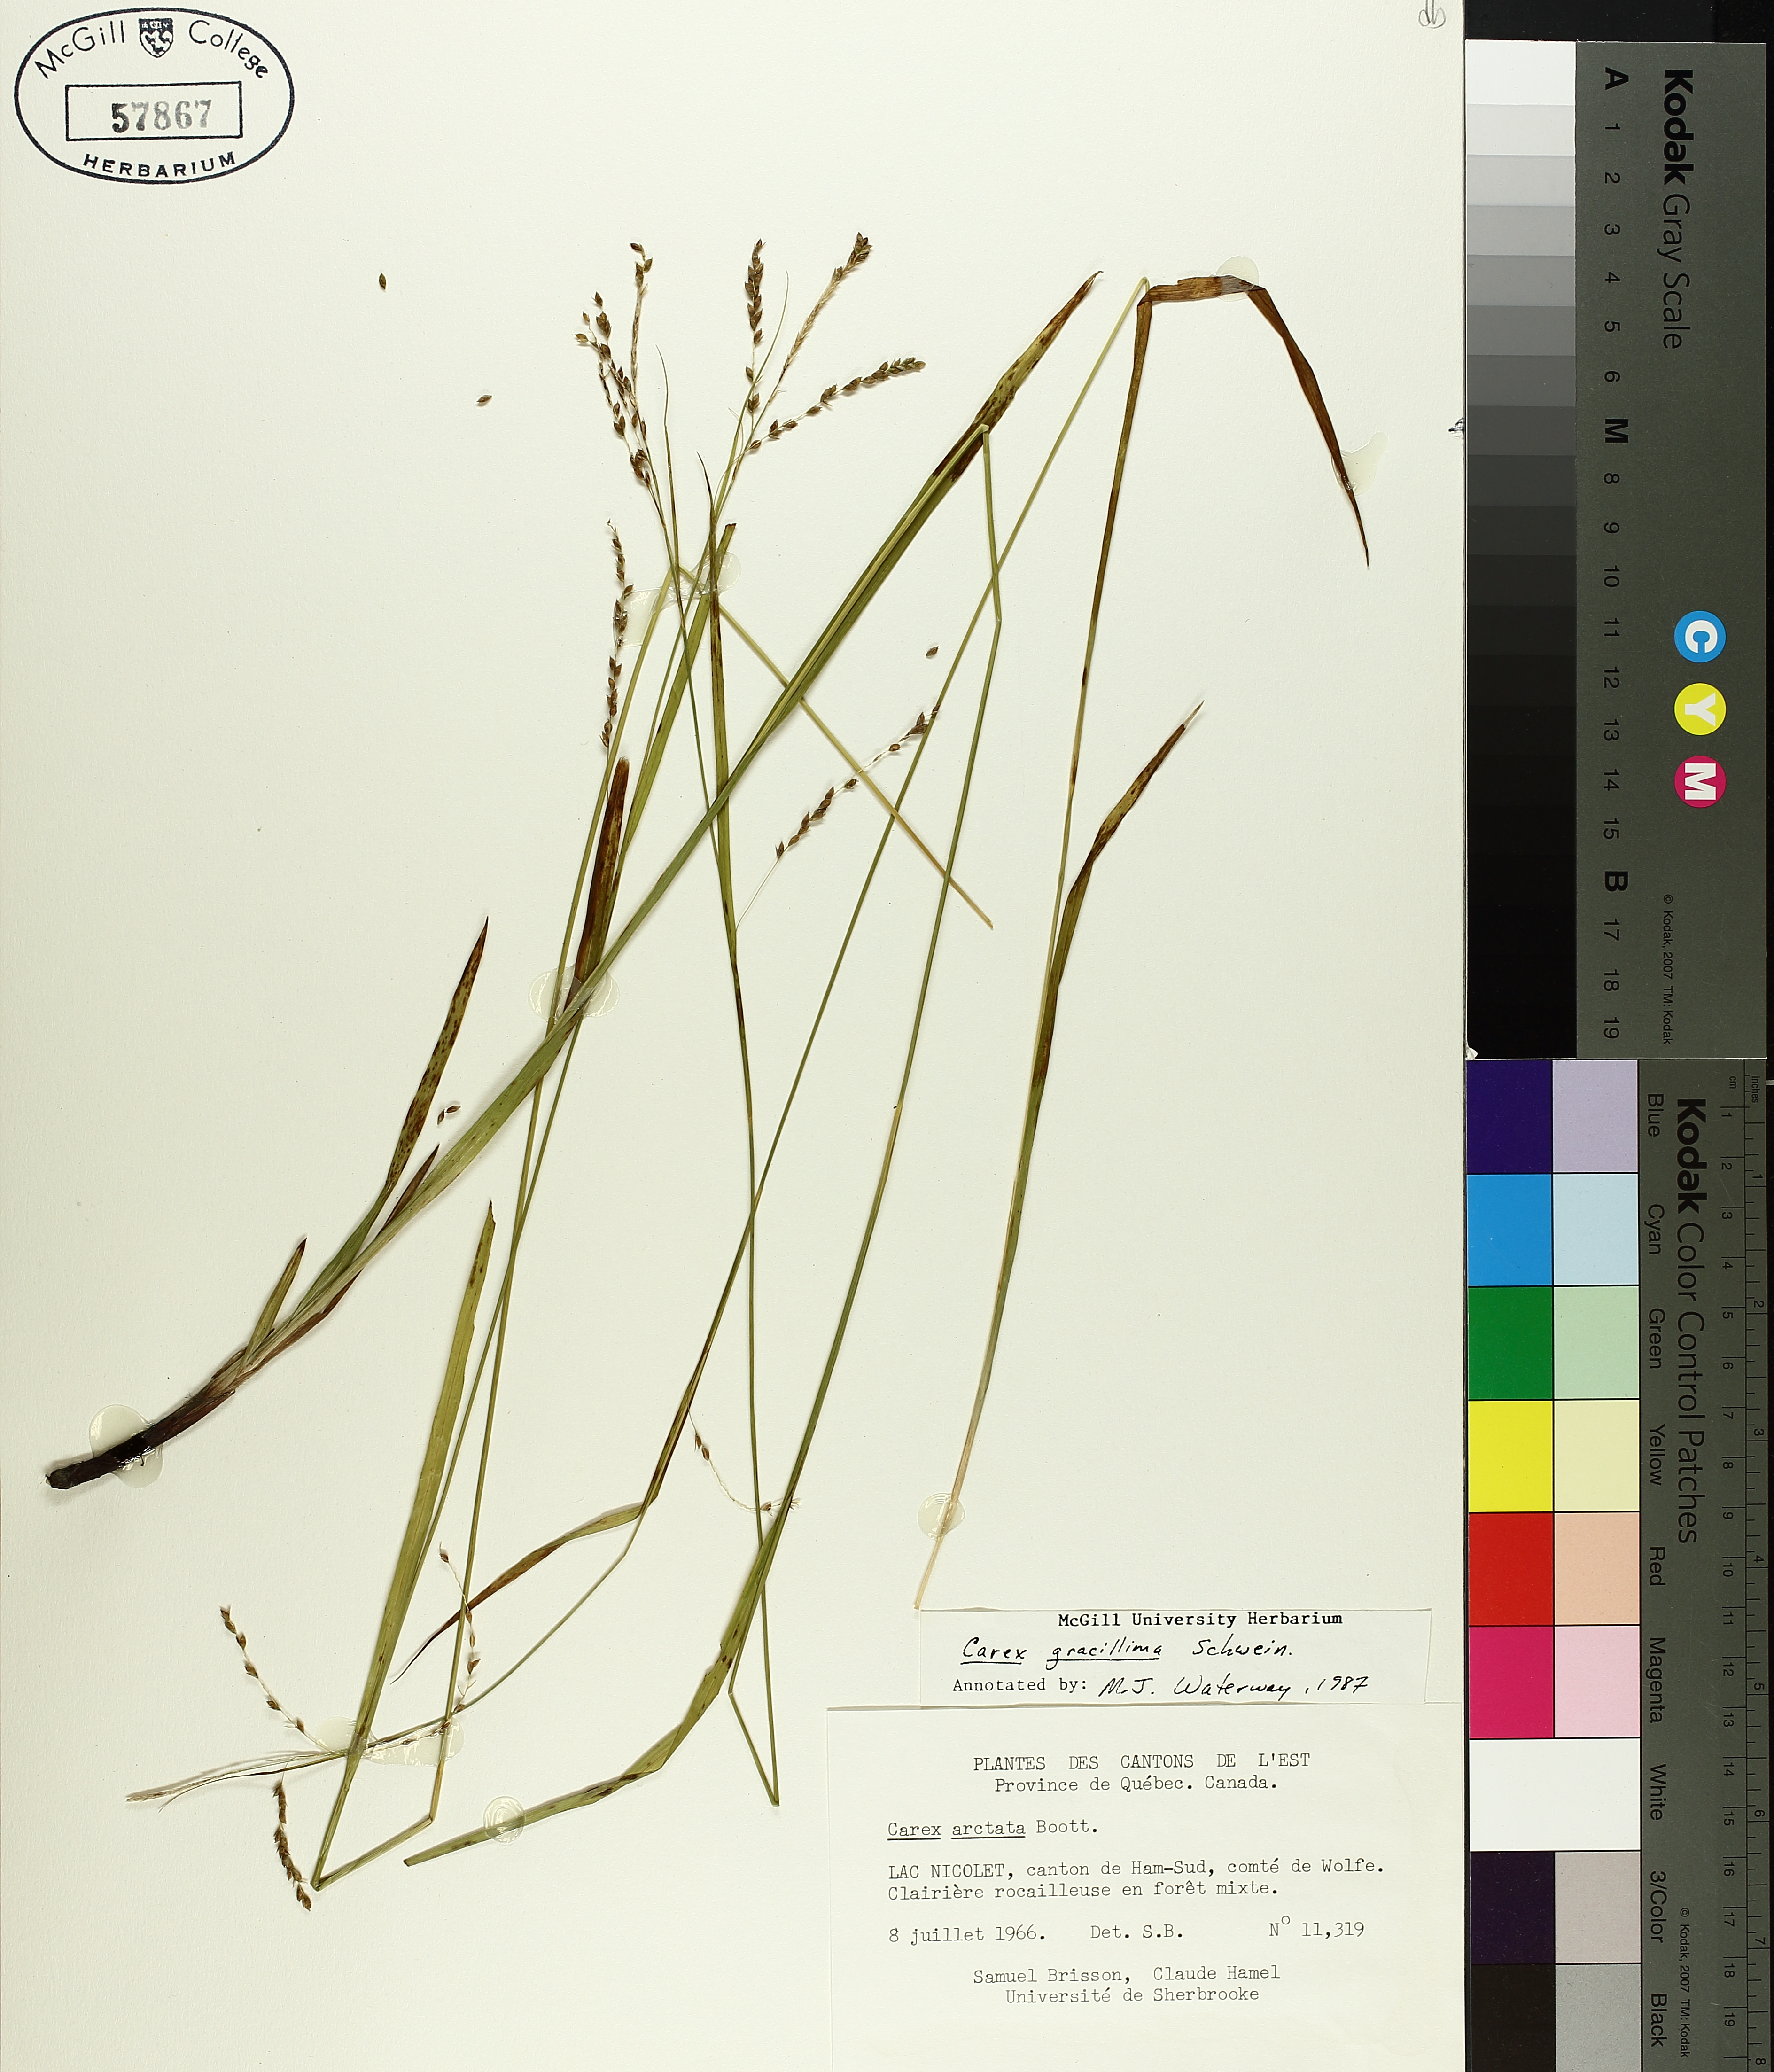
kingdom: Plantae
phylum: Tracheophyta
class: Liliopsida
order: Poales
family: Cyperaceae
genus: Carex
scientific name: Carex gracillima
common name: Graceful sedge
